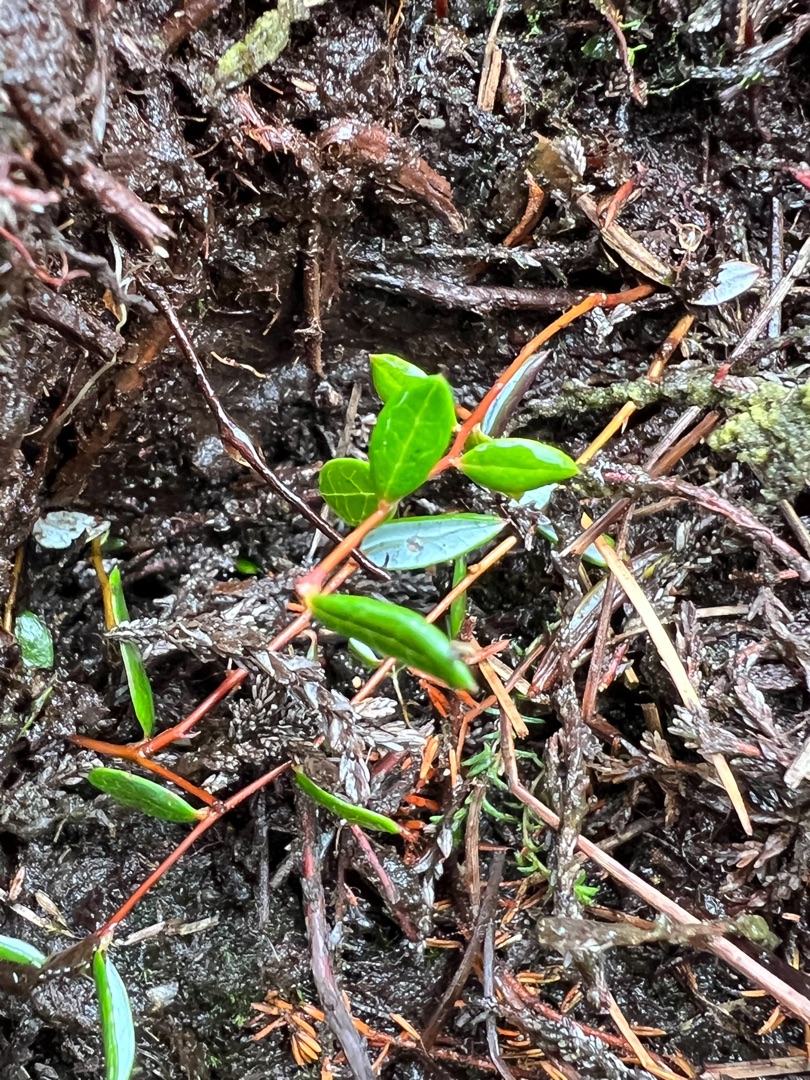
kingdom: Plantae
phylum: Tracheophyta
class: Magnoliopsida
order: Ericales
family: Ericaceae
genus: Vaccinium
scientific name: Vaccinium oxycoccos
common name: Tranebær
